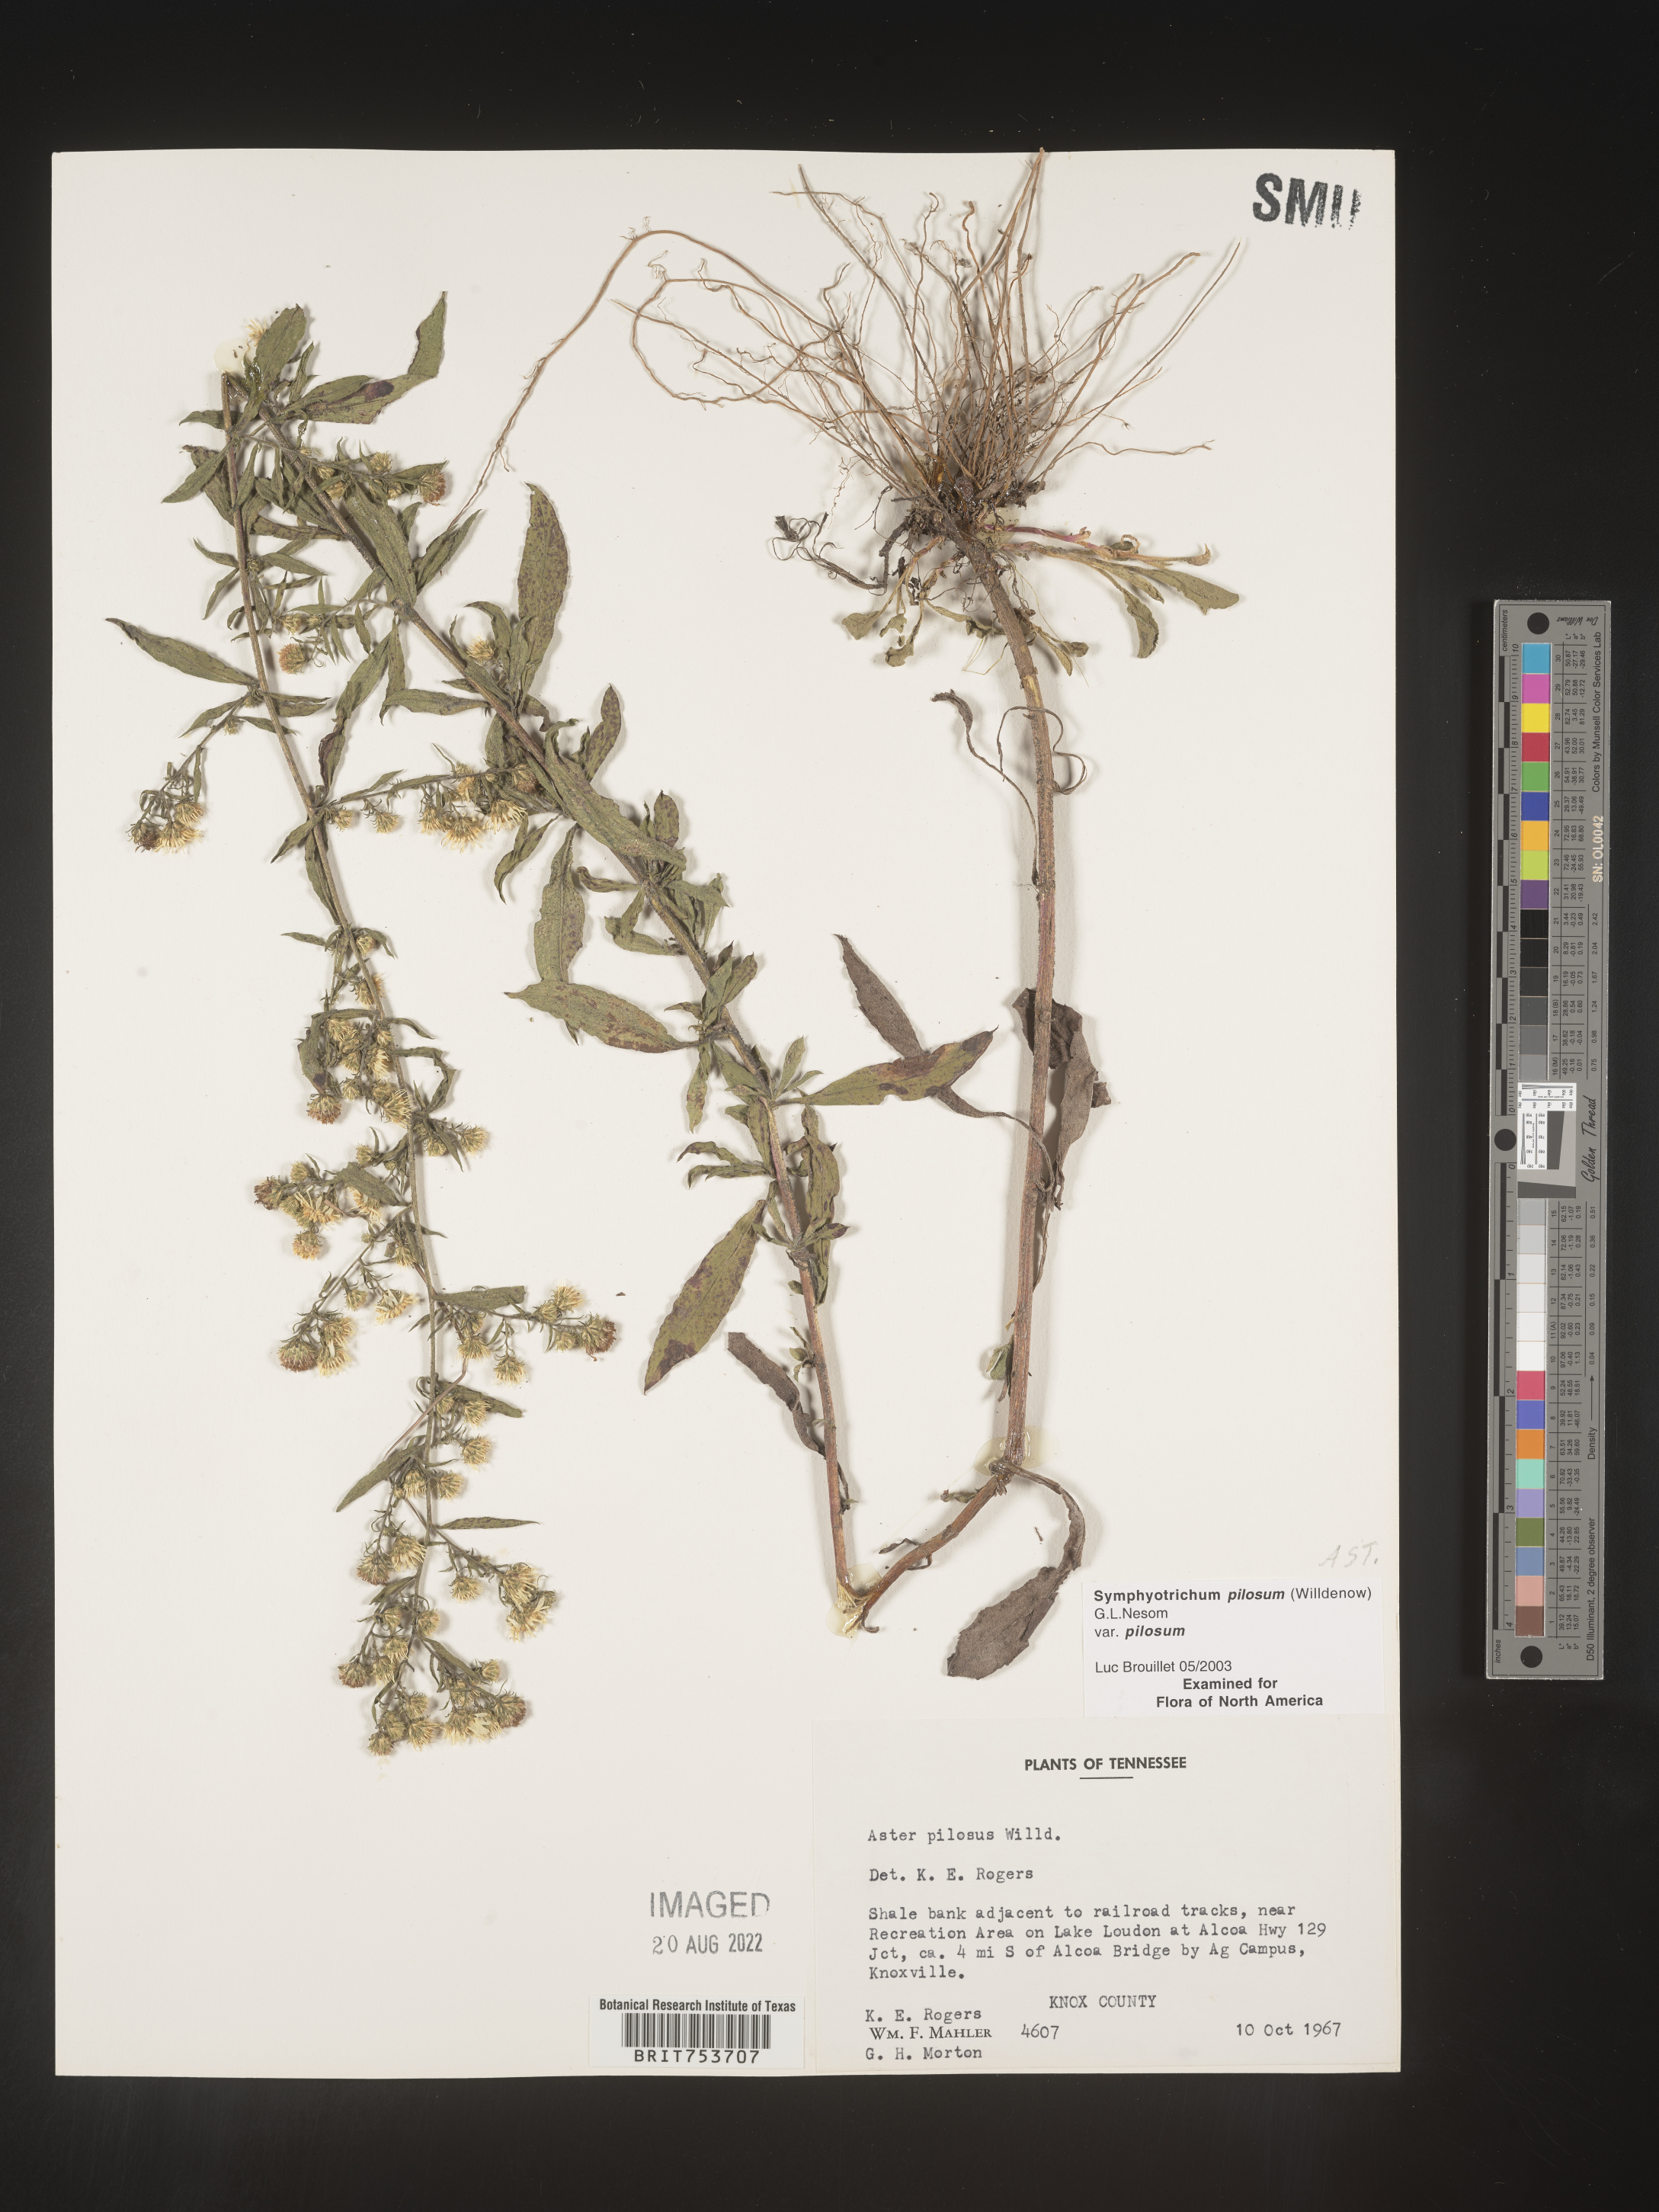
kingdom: Plantae
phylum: Tracheophyta
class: Magnoliopsida
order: Asterales
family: Asteraceae
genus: Symphyotrichum
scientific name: Symphyotrichum pilosum
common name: Awl aster
